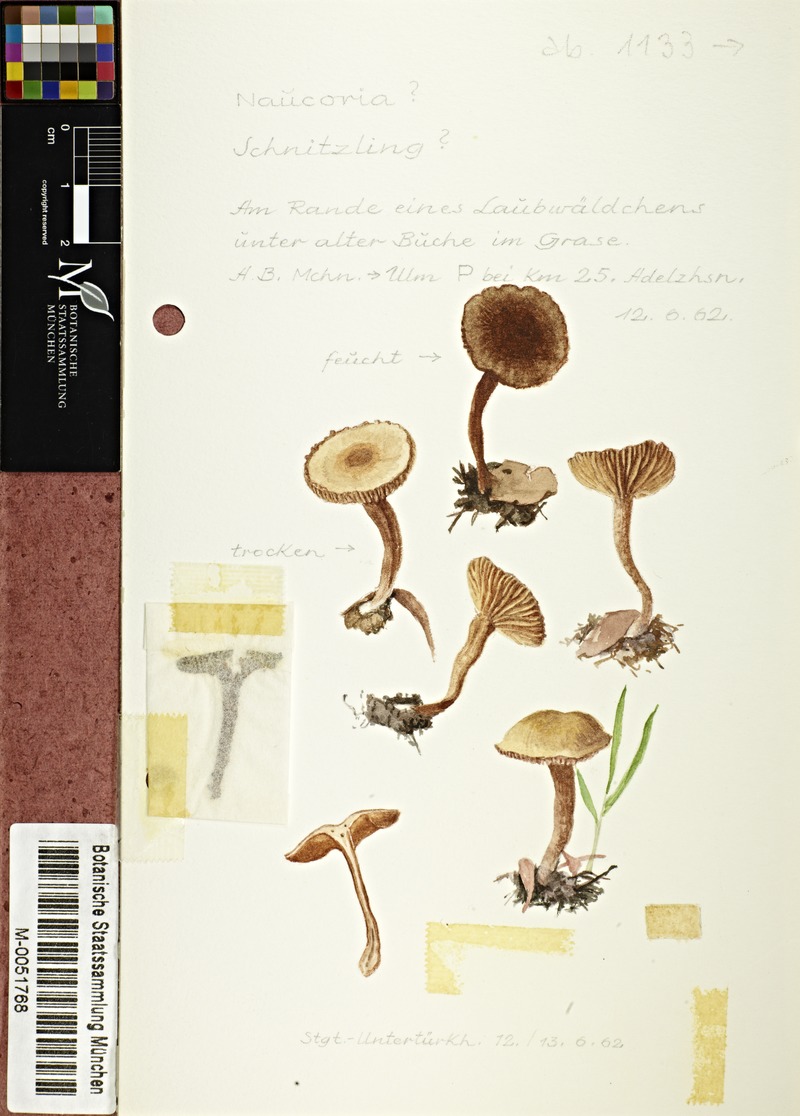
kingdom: Fungi
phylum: Basidiomycota
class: Agaricomycetes
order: Agaricales
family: Tubariaceae
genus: Tubaria
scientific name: Tubaria
